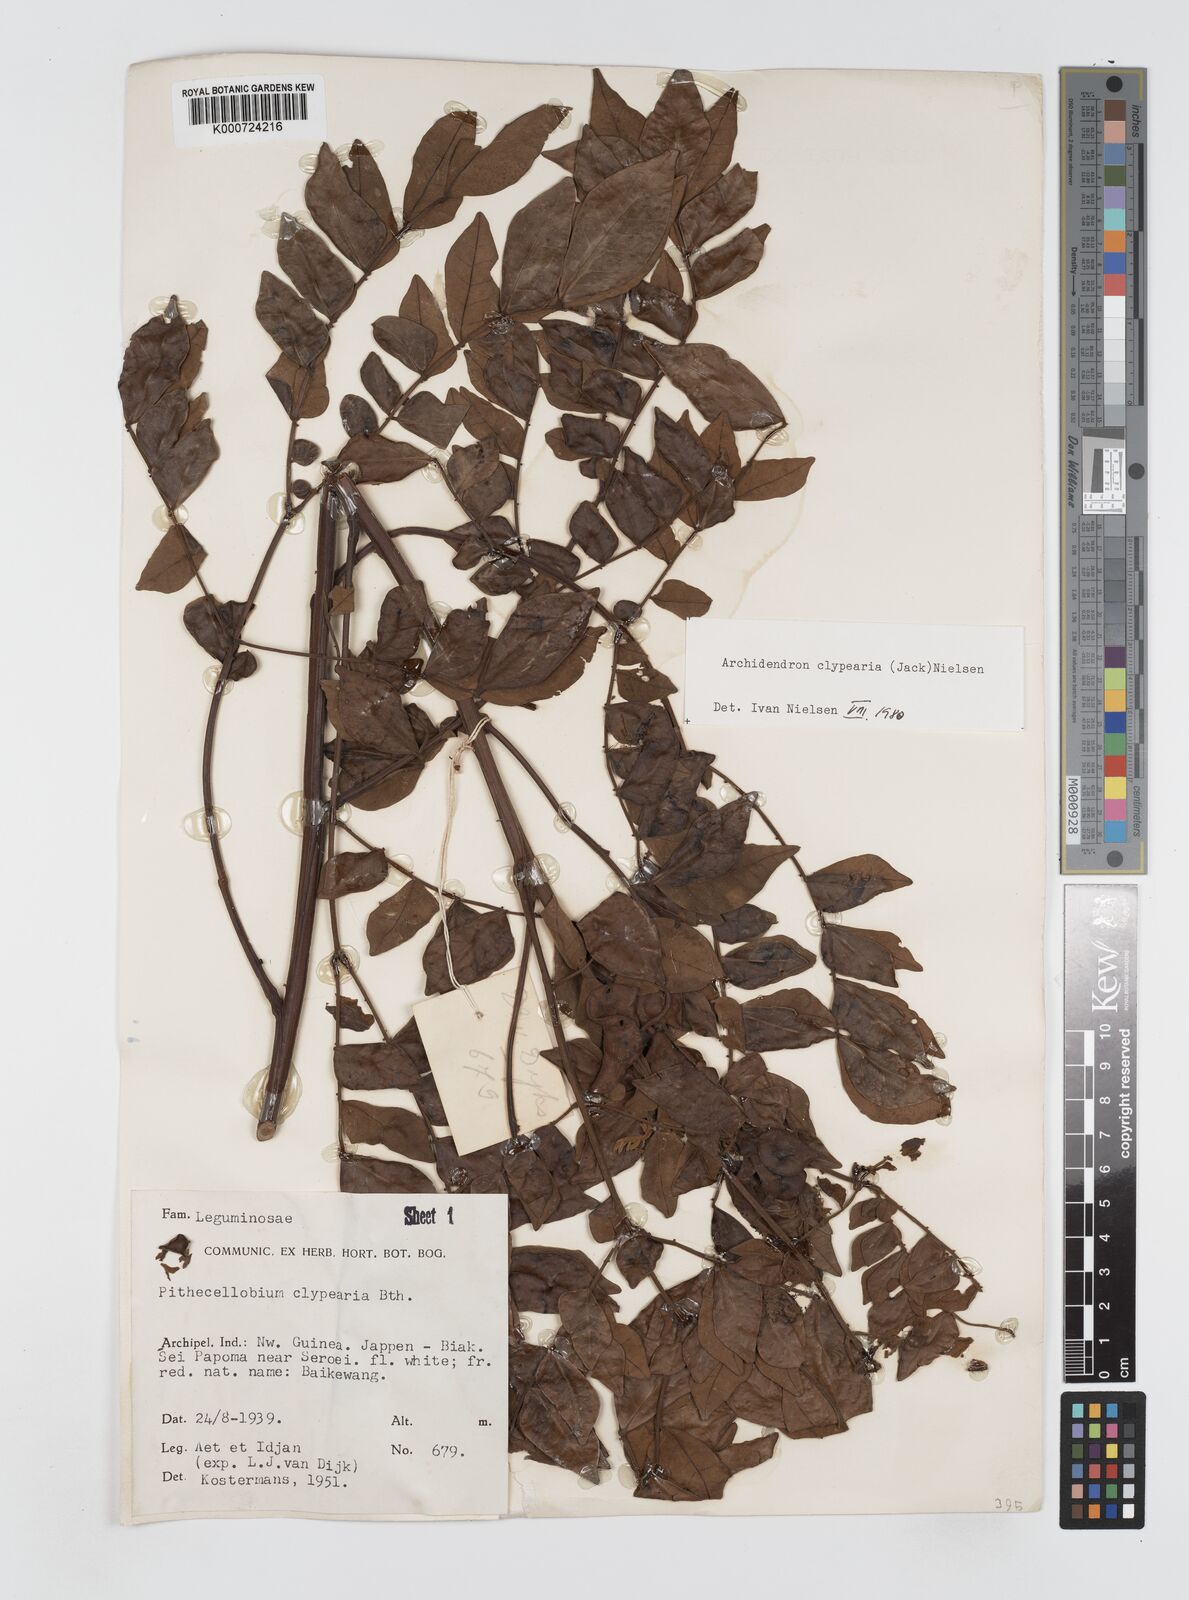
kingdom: Plantae
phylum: Tracheophyta
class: Magnoliopsida
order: Fabales
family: Fabaceae
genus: Archidendron
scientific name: Archidendron clypearia
